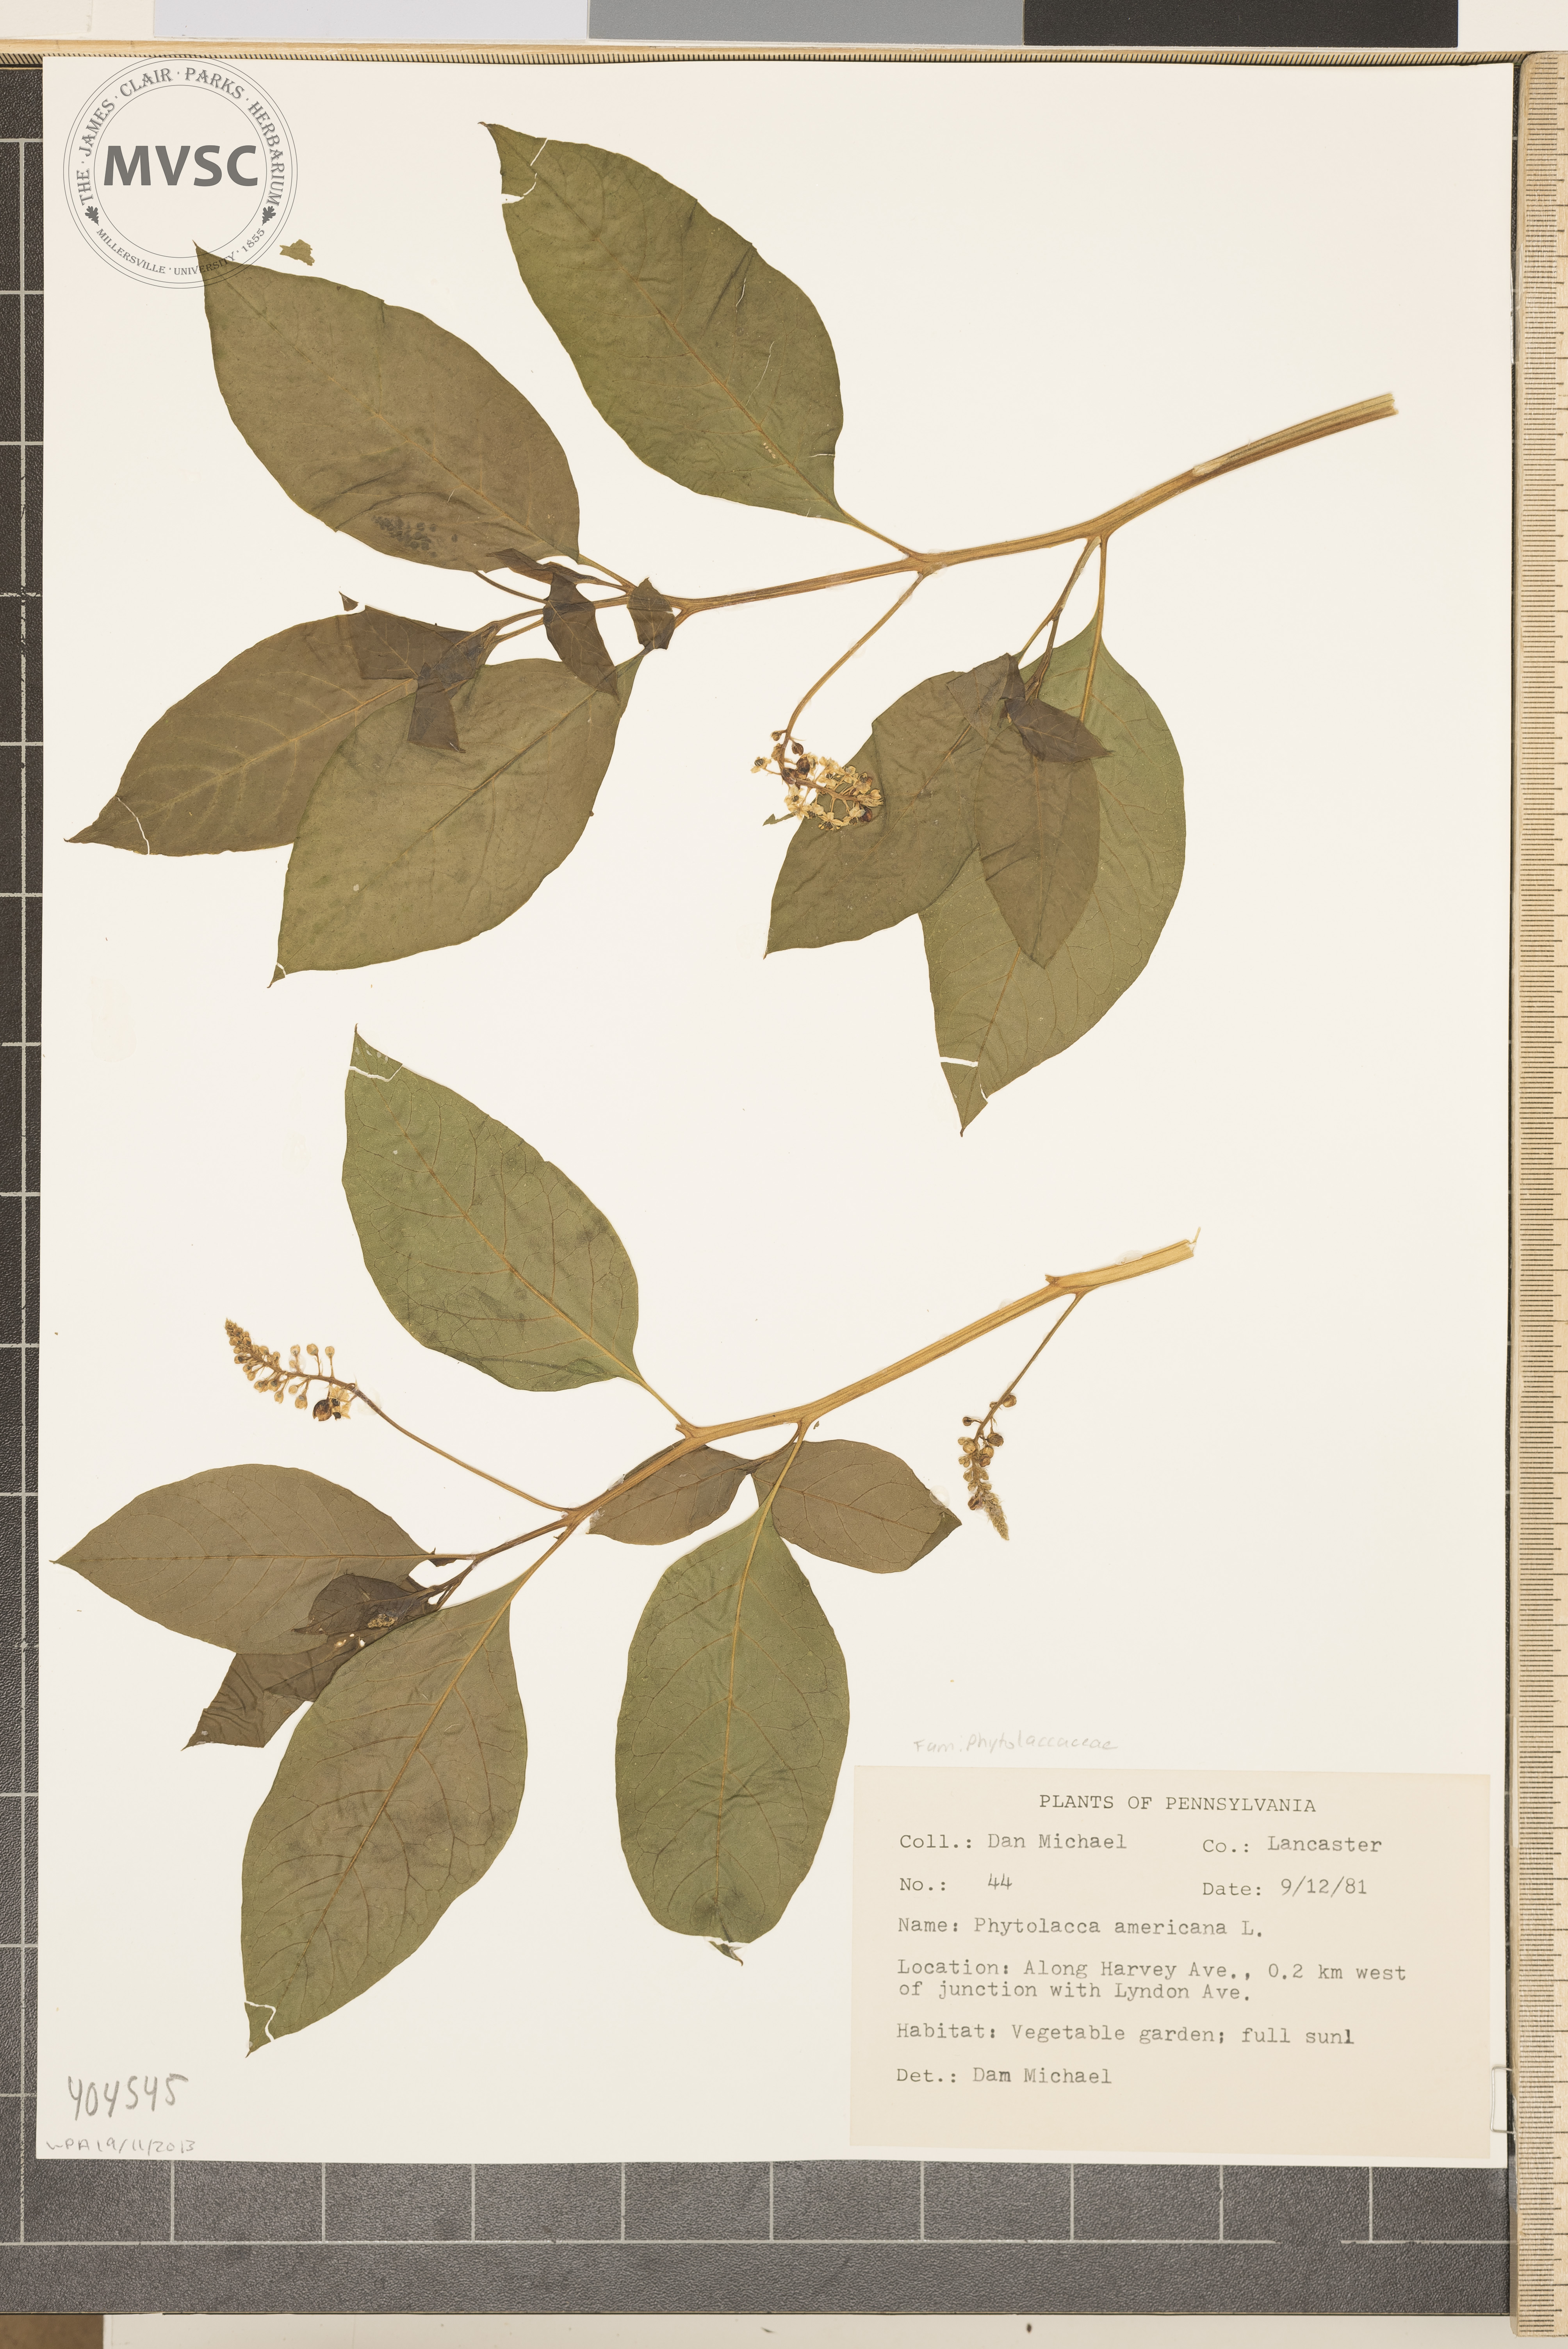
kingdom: Plantae
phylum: Tracheophyta
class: Magnoliopsida
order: Caryophyllales
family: Phytolaccaceae
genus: Phytolacca
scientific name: Phytolacca americana
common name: American pokeweed
